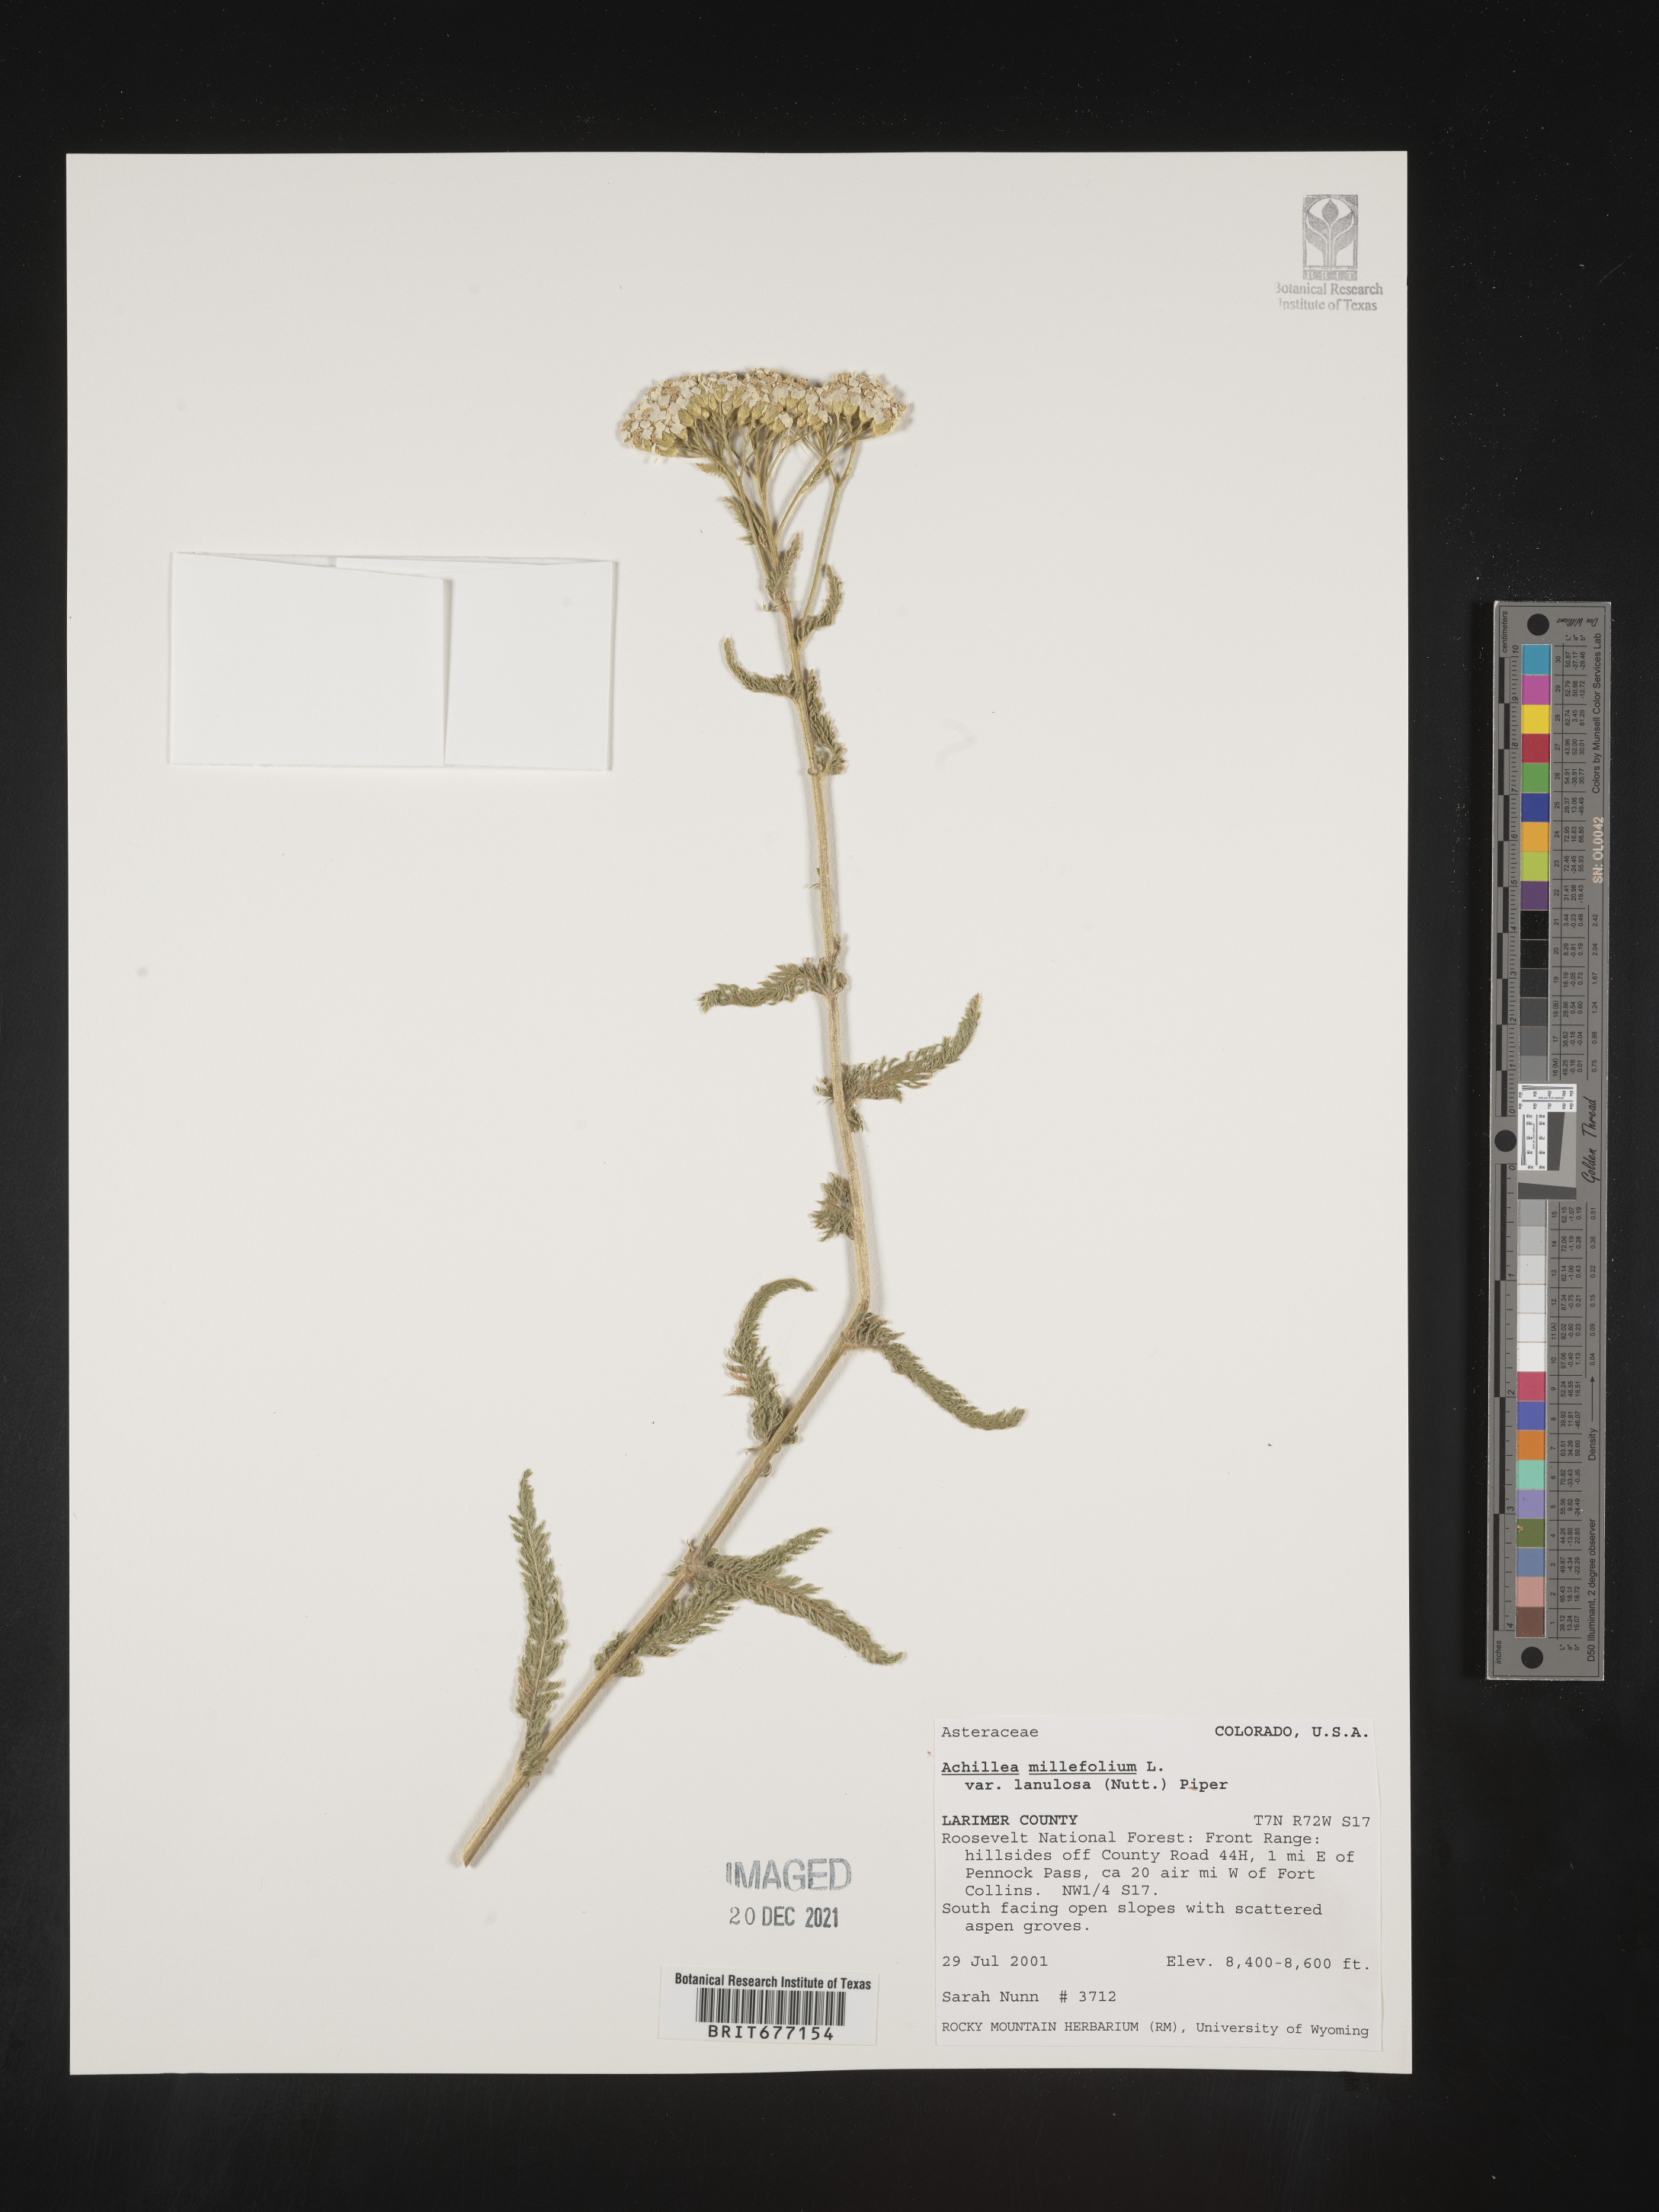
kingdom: Plantae
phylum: Tracheophyta
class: Magnoliopsida
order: Asterales
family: Asteraceae
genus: Achillea
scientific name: Achillea millefolium
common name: Yarrow
